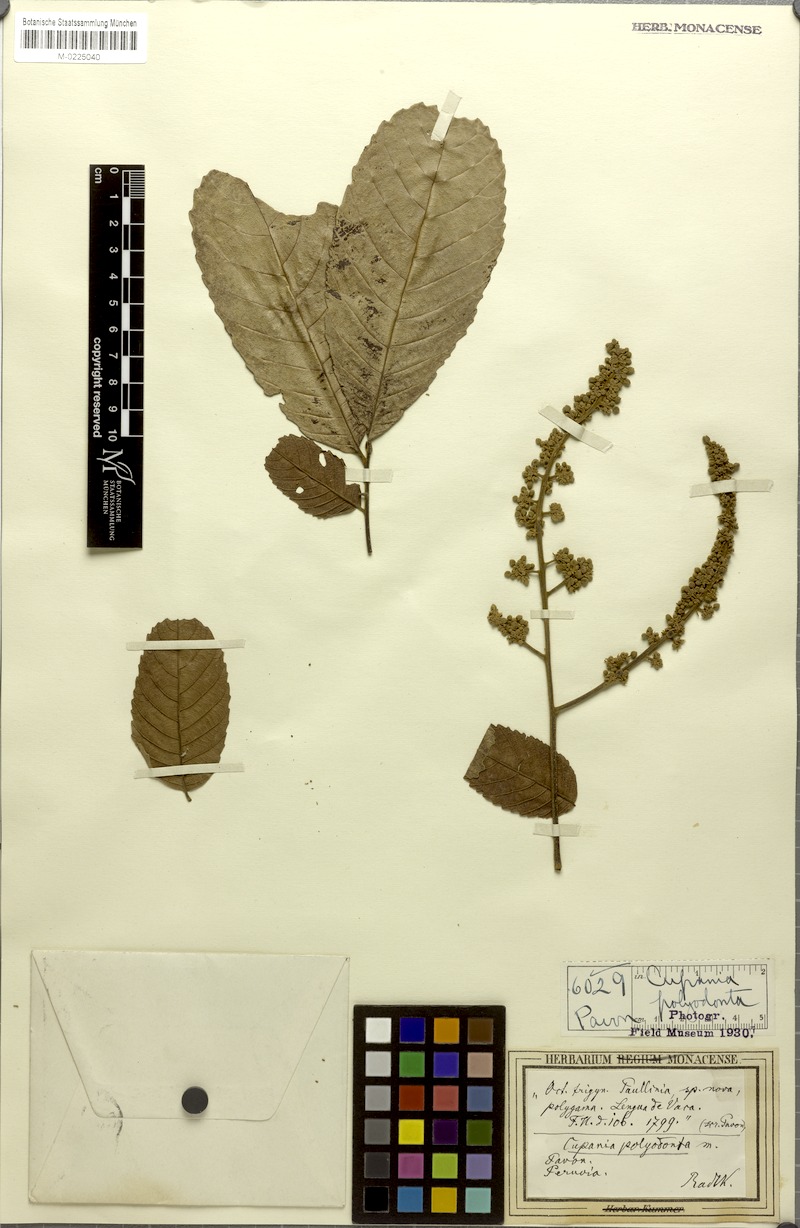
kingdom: Plantae
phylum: Tracheophyta
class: Magnoliopsida
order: Sapindales
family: Sapindaceae
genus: Cupania
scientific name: Cupania polyodonta
